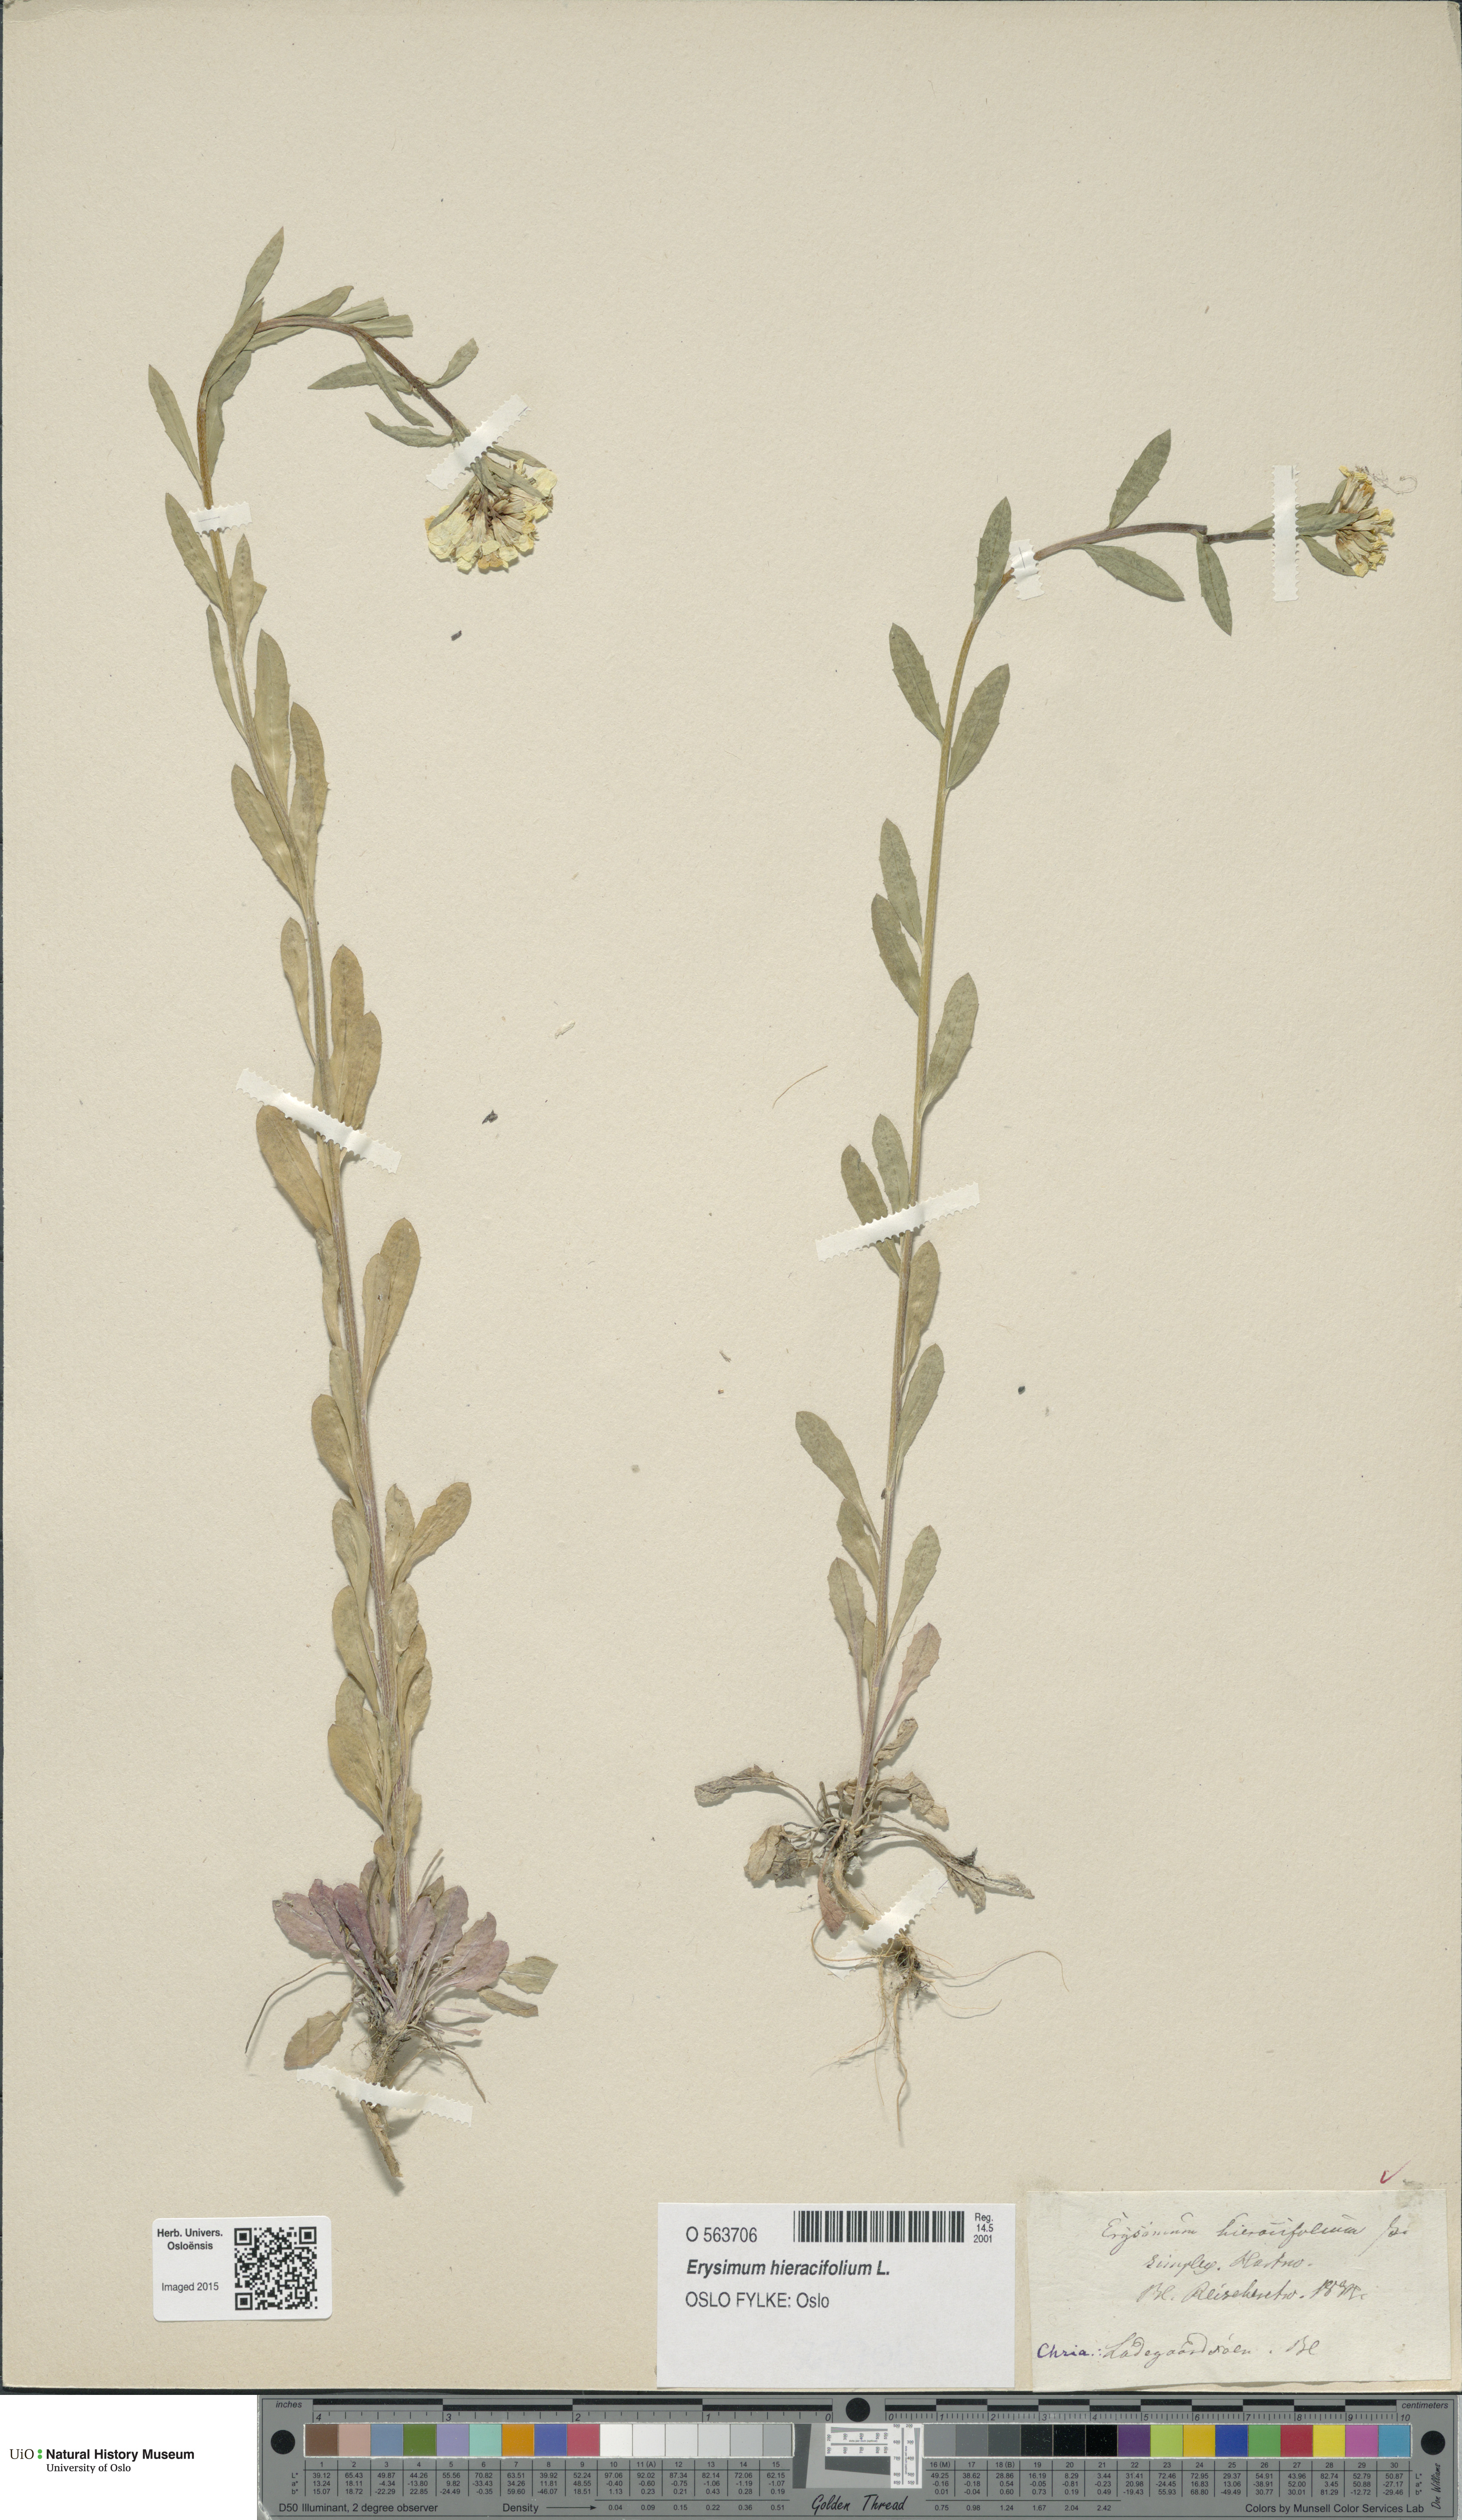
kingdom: Plantae
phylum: Tracheophyta
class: Magnoliopsida
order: Brassicales
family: Brassicaceae
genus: Erysimum
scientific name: Erysimum hieraciifolium
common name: European wallflower
